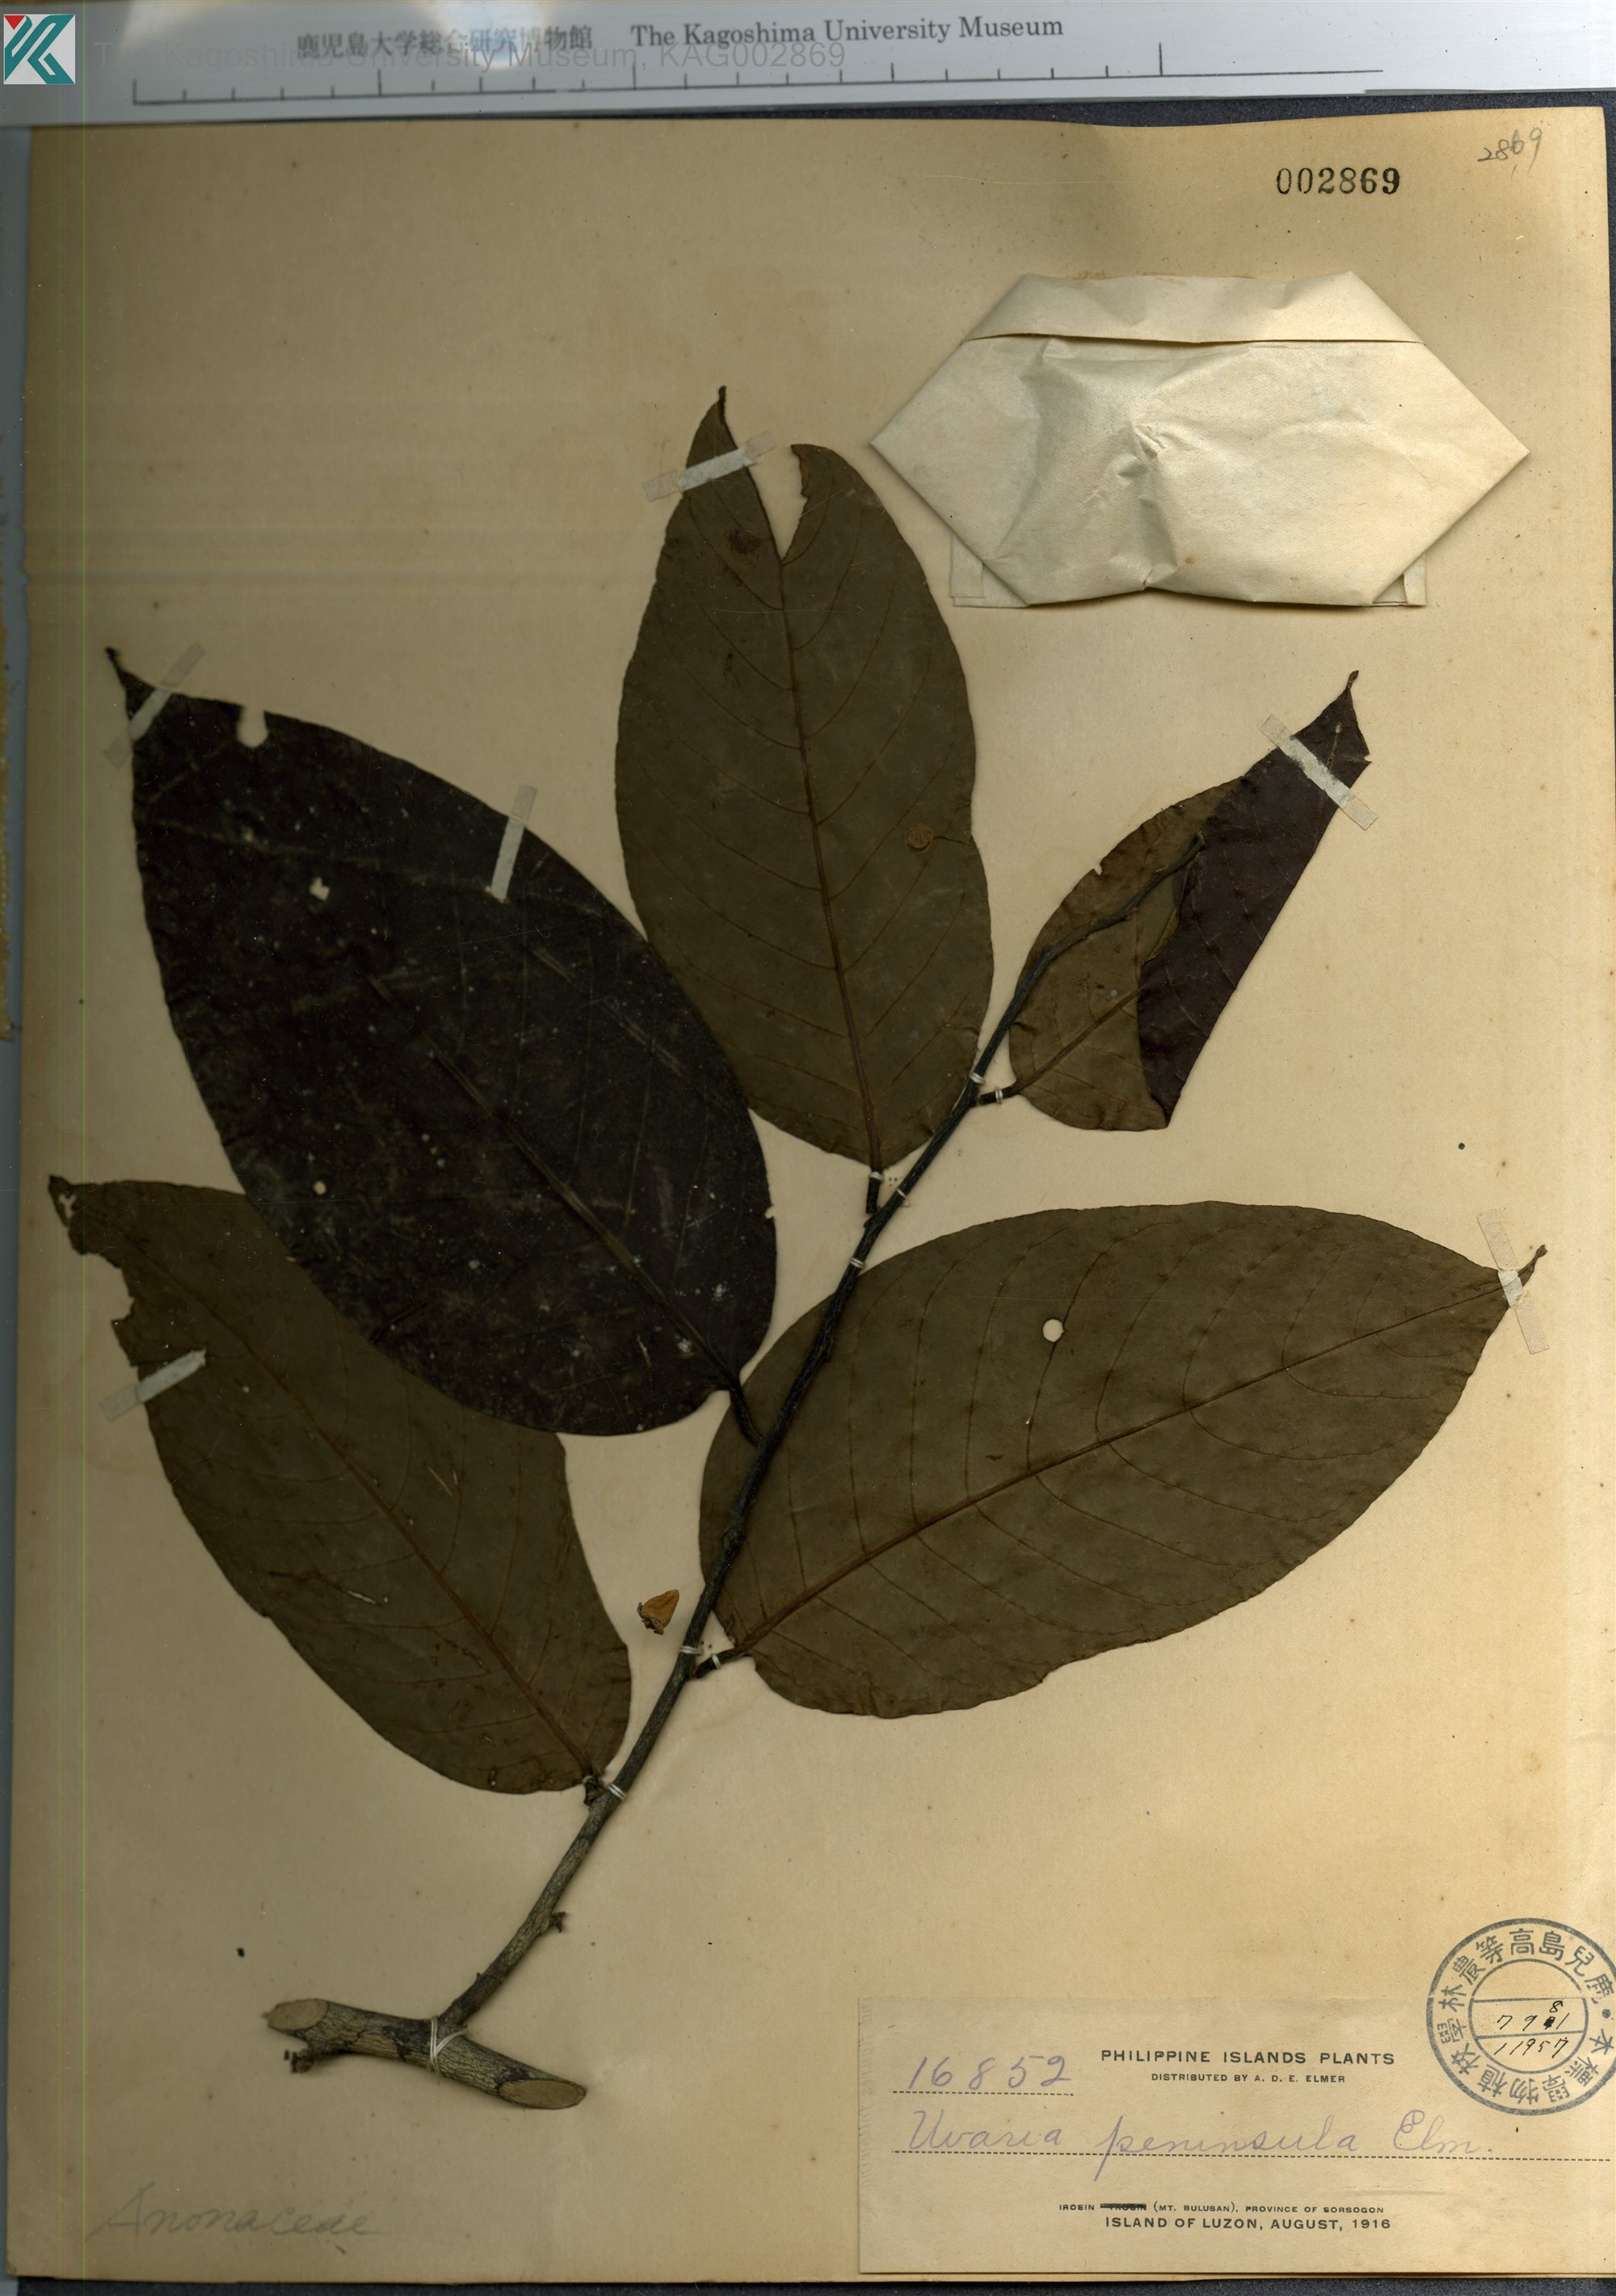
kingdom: Plantae
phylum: Tracheophyta
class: Magnoliopsida
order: Magnoliales
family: Annonaceae
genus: Uvaria
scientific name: Uvaria peninsula
